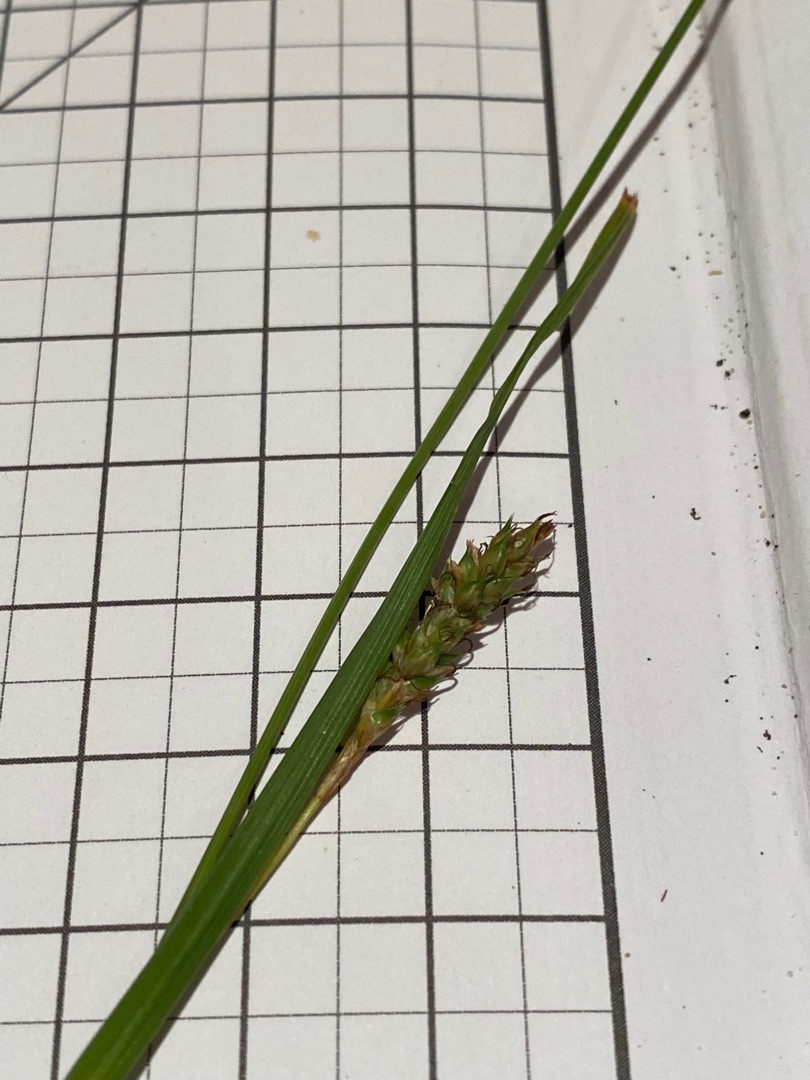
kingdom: Plantae
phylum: Tracheophyta
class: Liliopsida
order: Poales
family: Cyperaceae
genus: Carex
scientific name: Carex distans
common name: Fjernakset star
